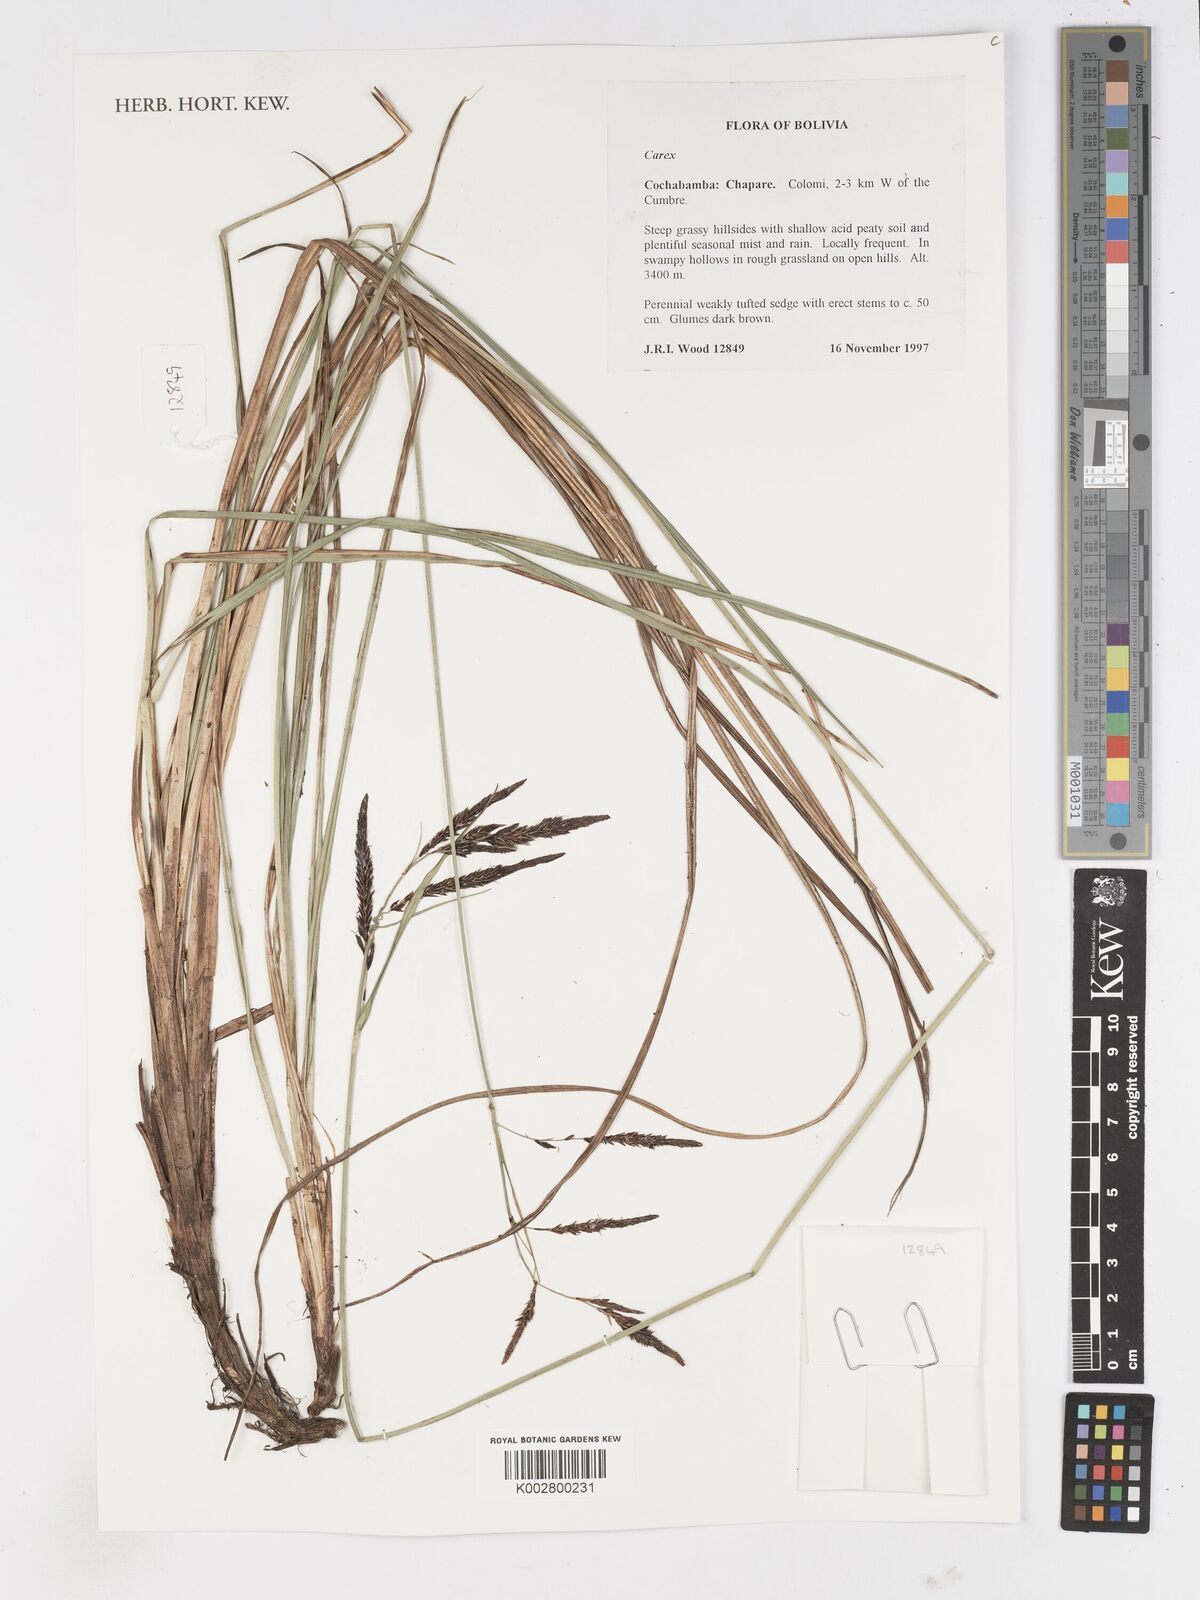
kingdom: Plantae
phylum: Tracheophyta
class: Liliopsida
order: Poales
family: Cyperaceae
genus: Carex
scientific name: Carex
